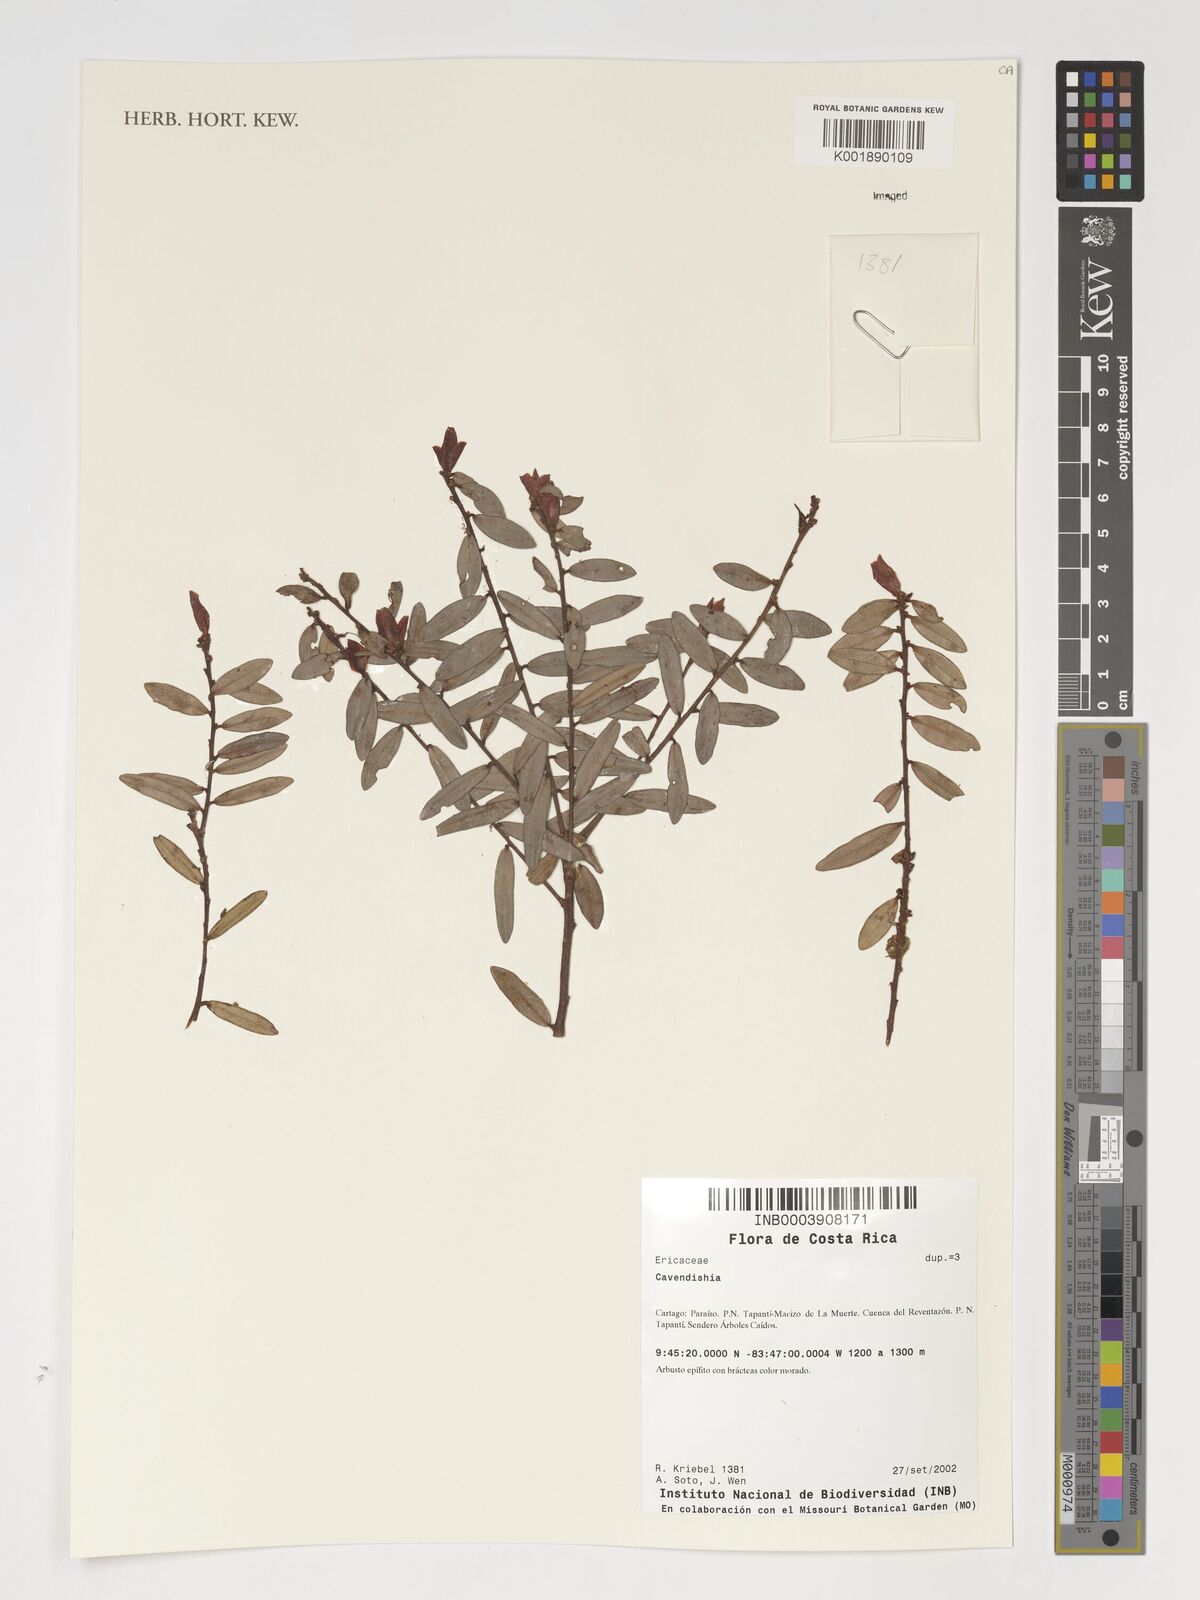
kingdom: Plantae
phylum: Tracheophyta
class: Magnoliopsida
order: Ericales
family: Ericaceae
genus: Cavendishia
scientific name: Cavendishia
